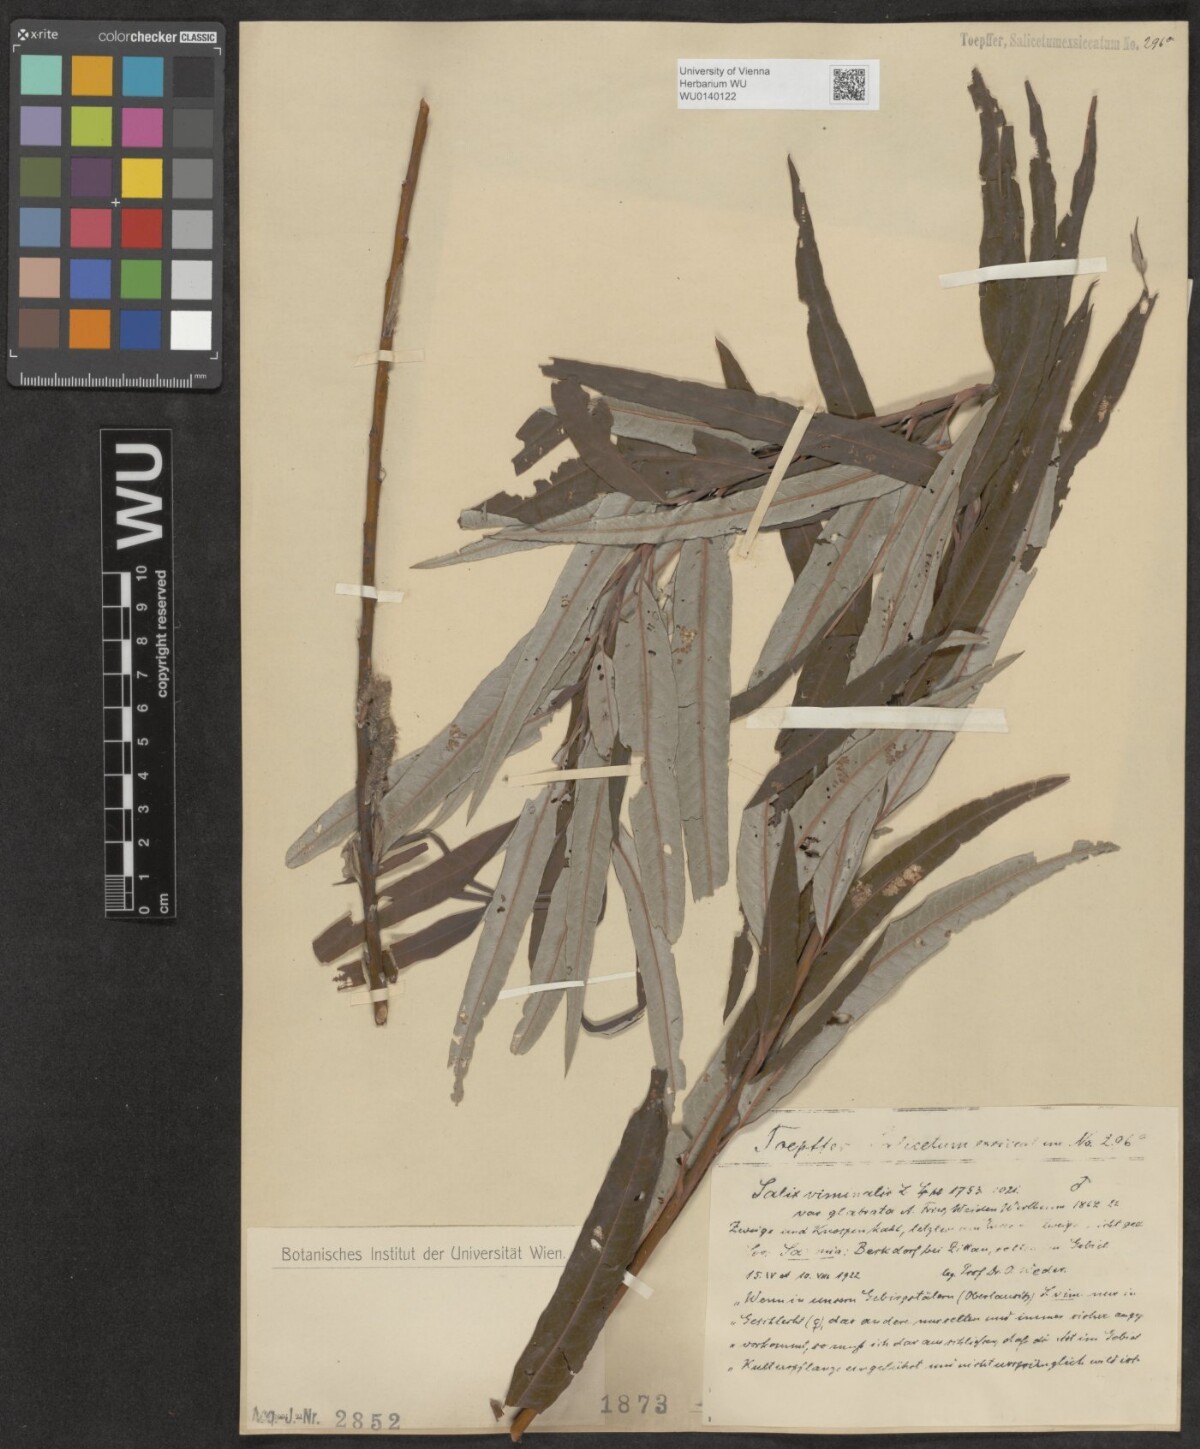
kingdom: Plantae
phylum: Tracheophyta
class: Magnoliopsida
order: Malpighiales
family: Salicaceae
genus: Salix
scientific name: Salix viminalis
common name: Osier
